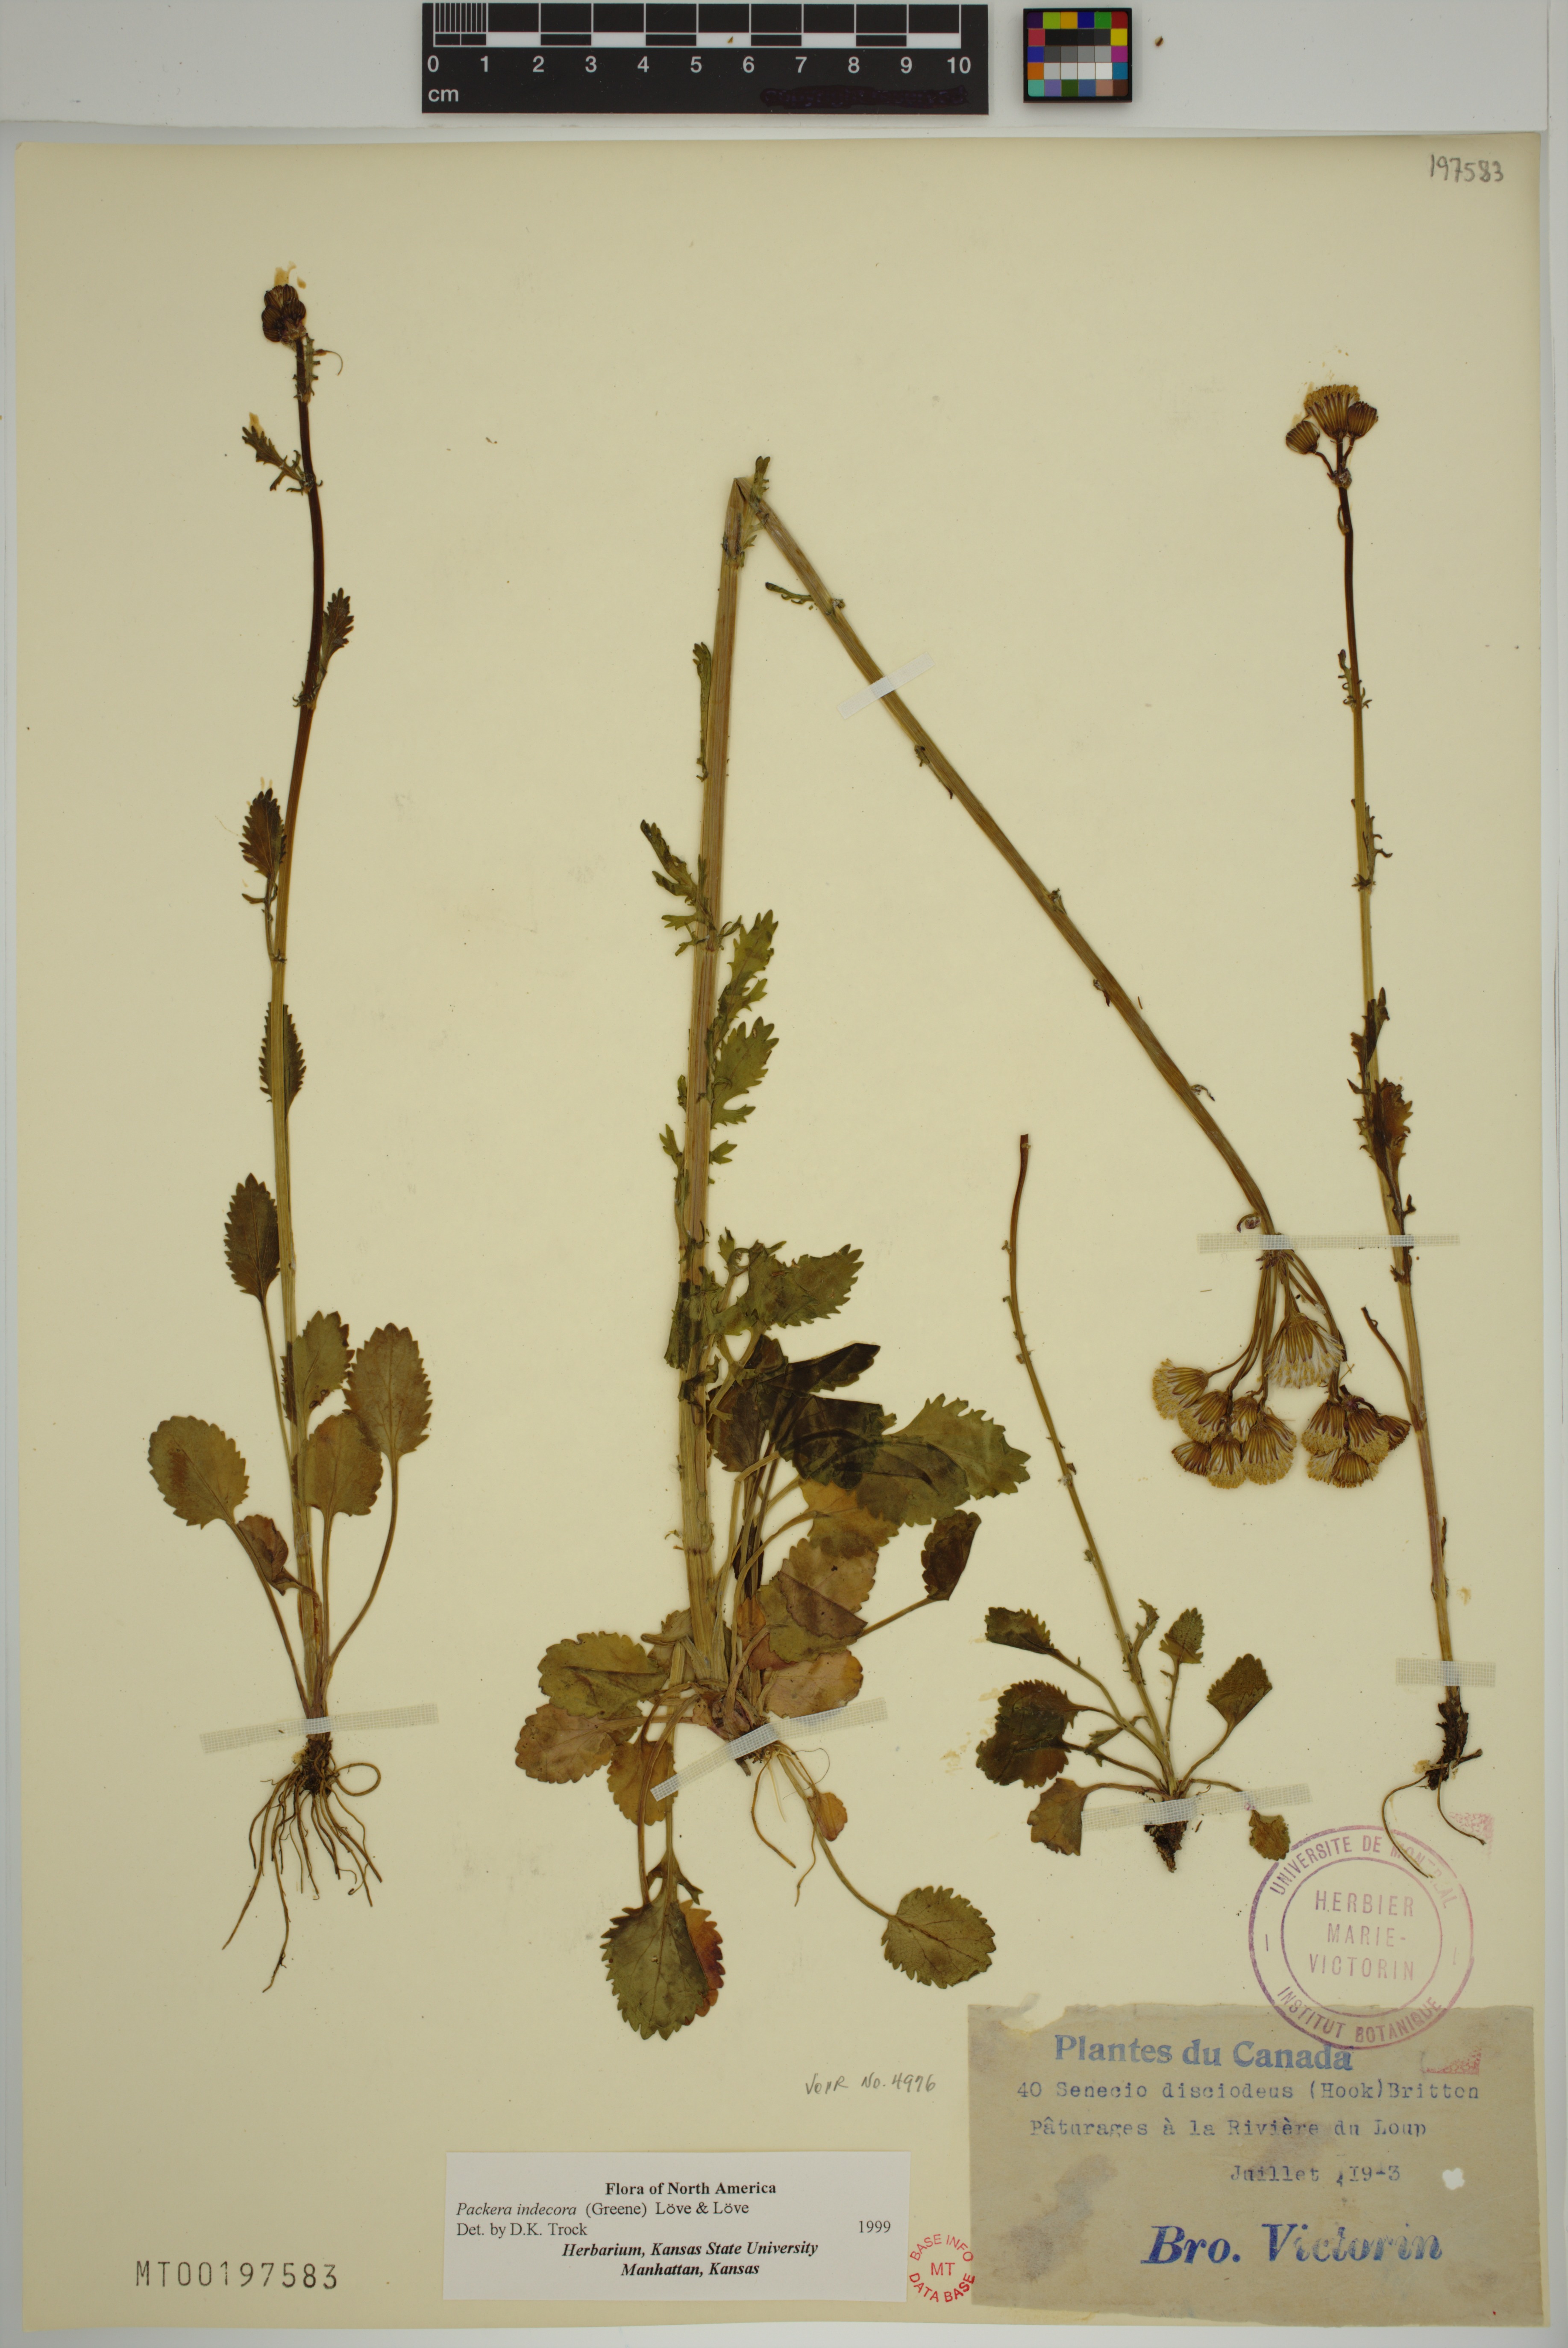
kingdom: Plantae
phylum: Tracheophyta
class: Magnoliopsida
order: Asterales
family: Asteraceae
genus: Packera
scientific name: Packera indecora
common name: Elegant groundsel
